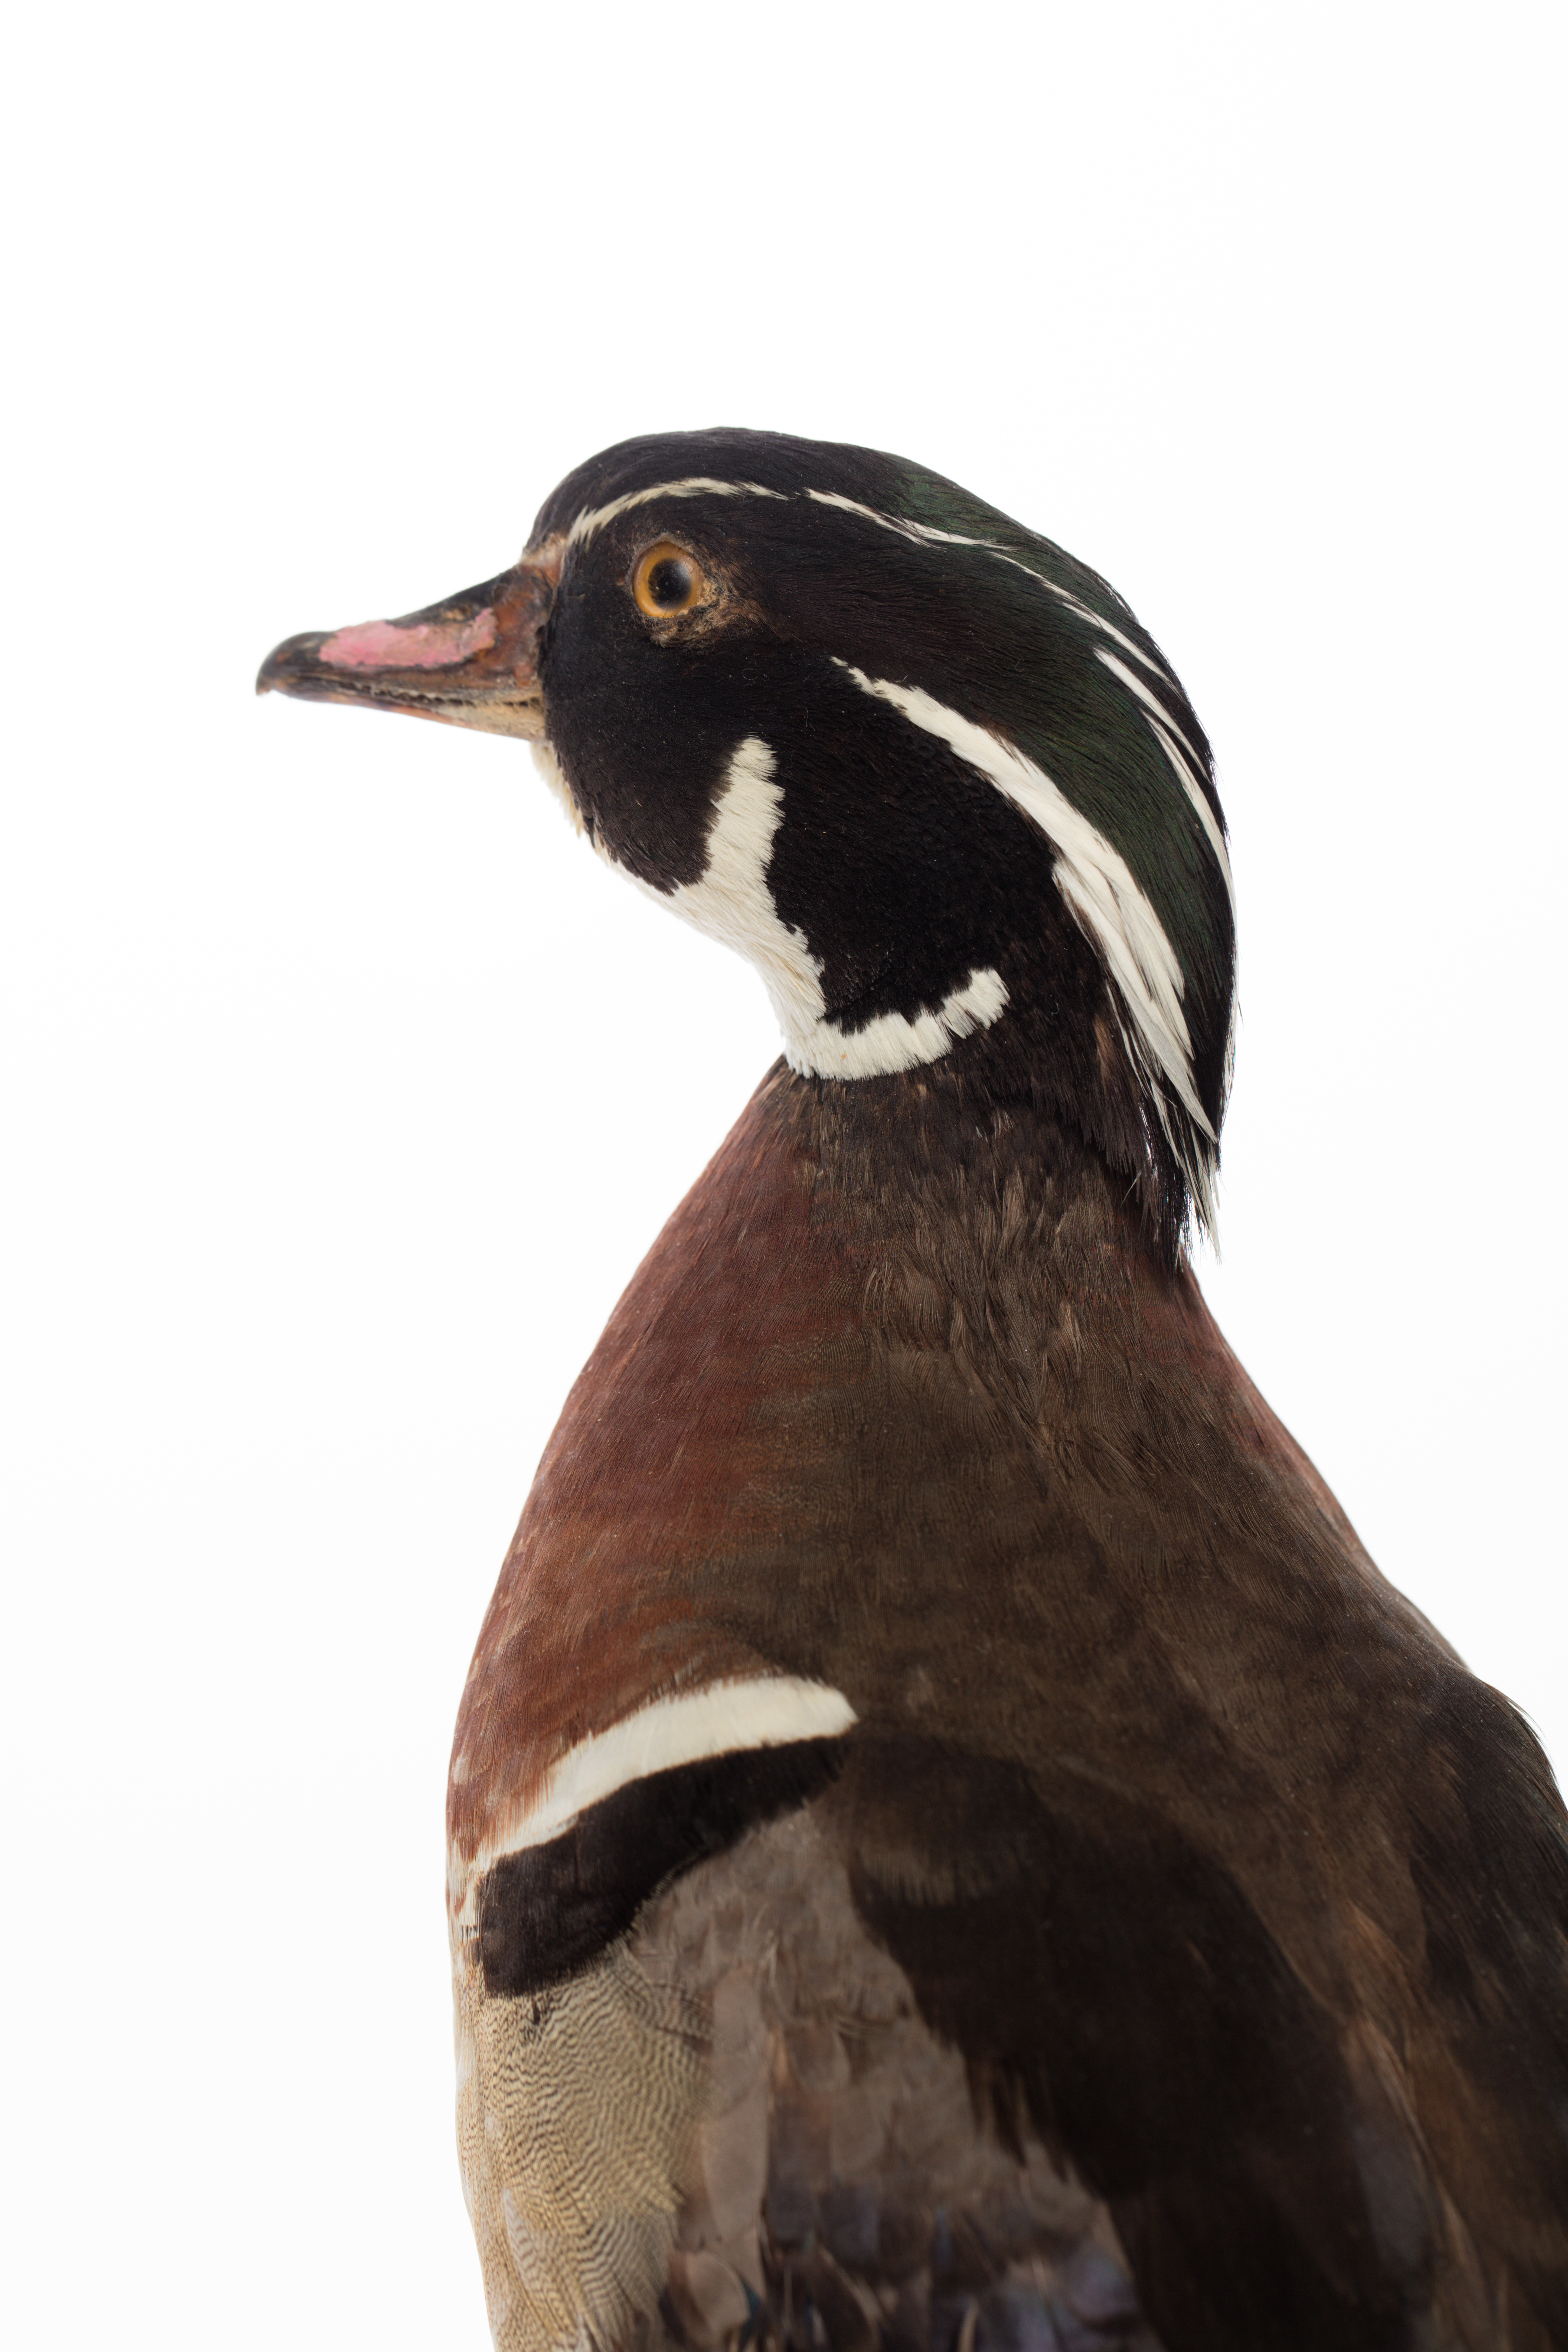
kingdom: Animalia
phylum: Chordata
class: Aves
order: Anseriformes
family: Anatidae
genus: Aix
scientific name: Aix sponsa
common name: Wood duck
